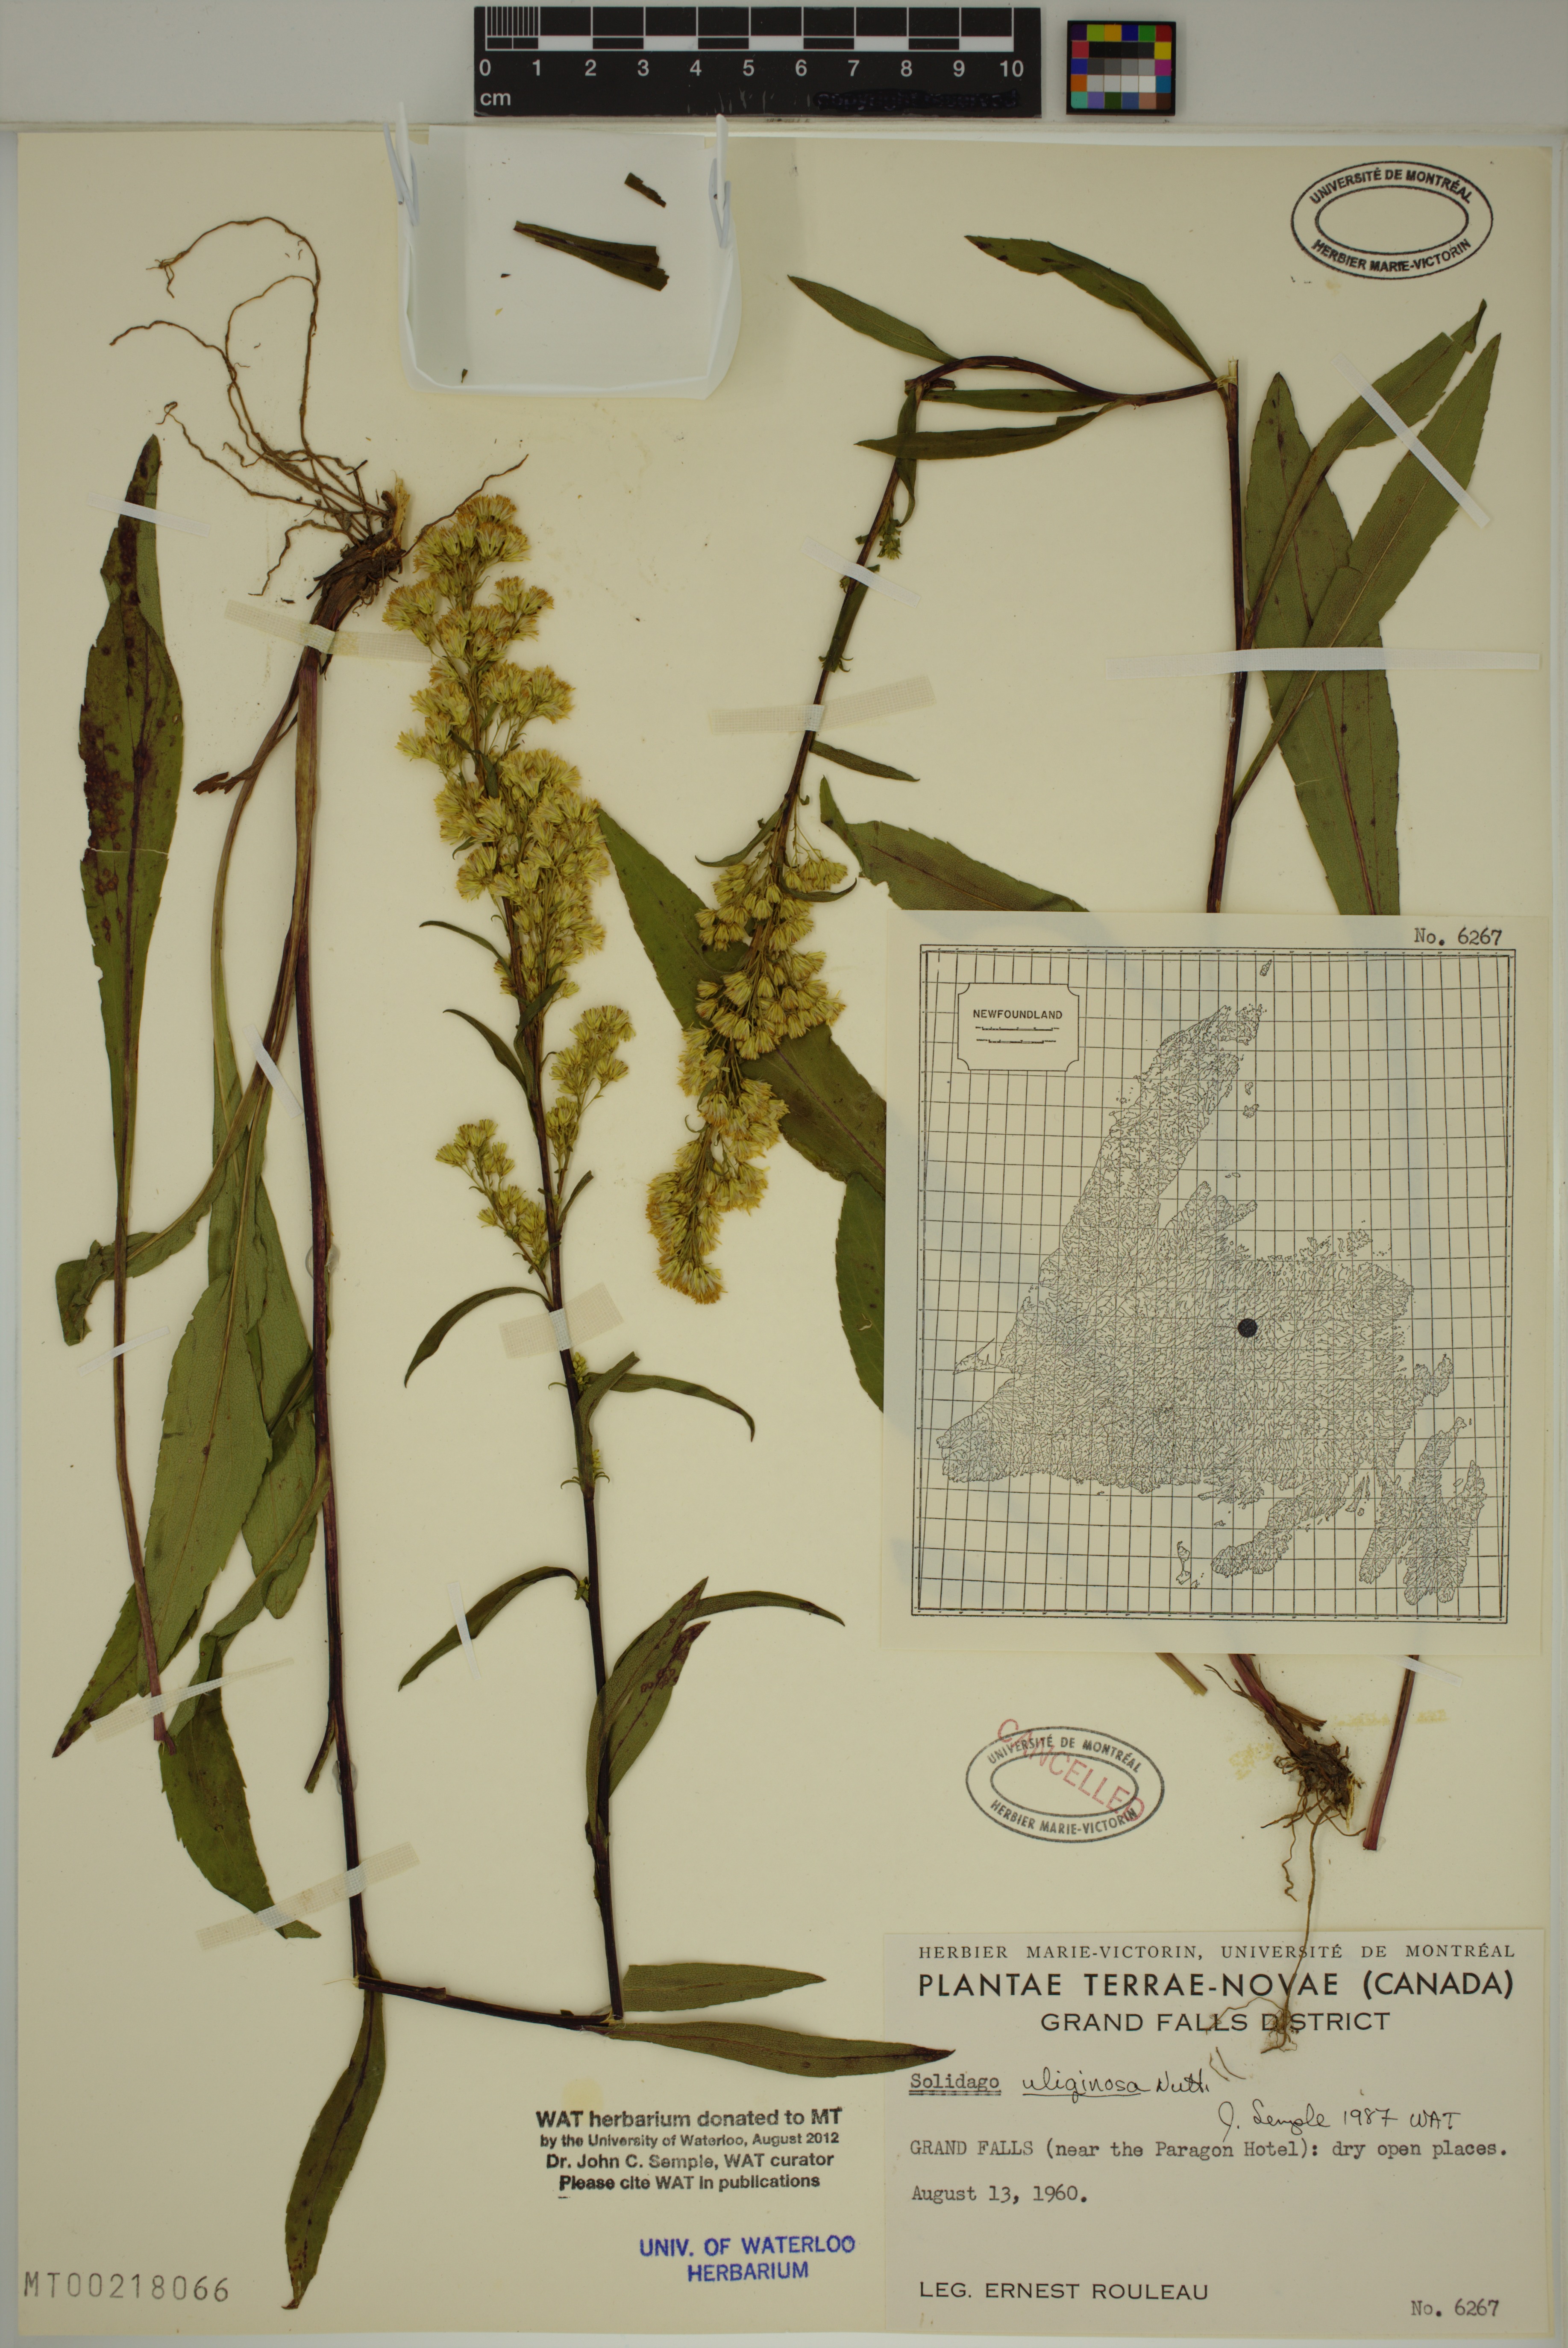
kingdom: Plantae
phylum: Tracheophyta
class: Magnoliopsida
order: Asterales
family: Asteraceae
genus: Solidago
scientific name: Solidago uliginosa
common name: Bog goldenrod
